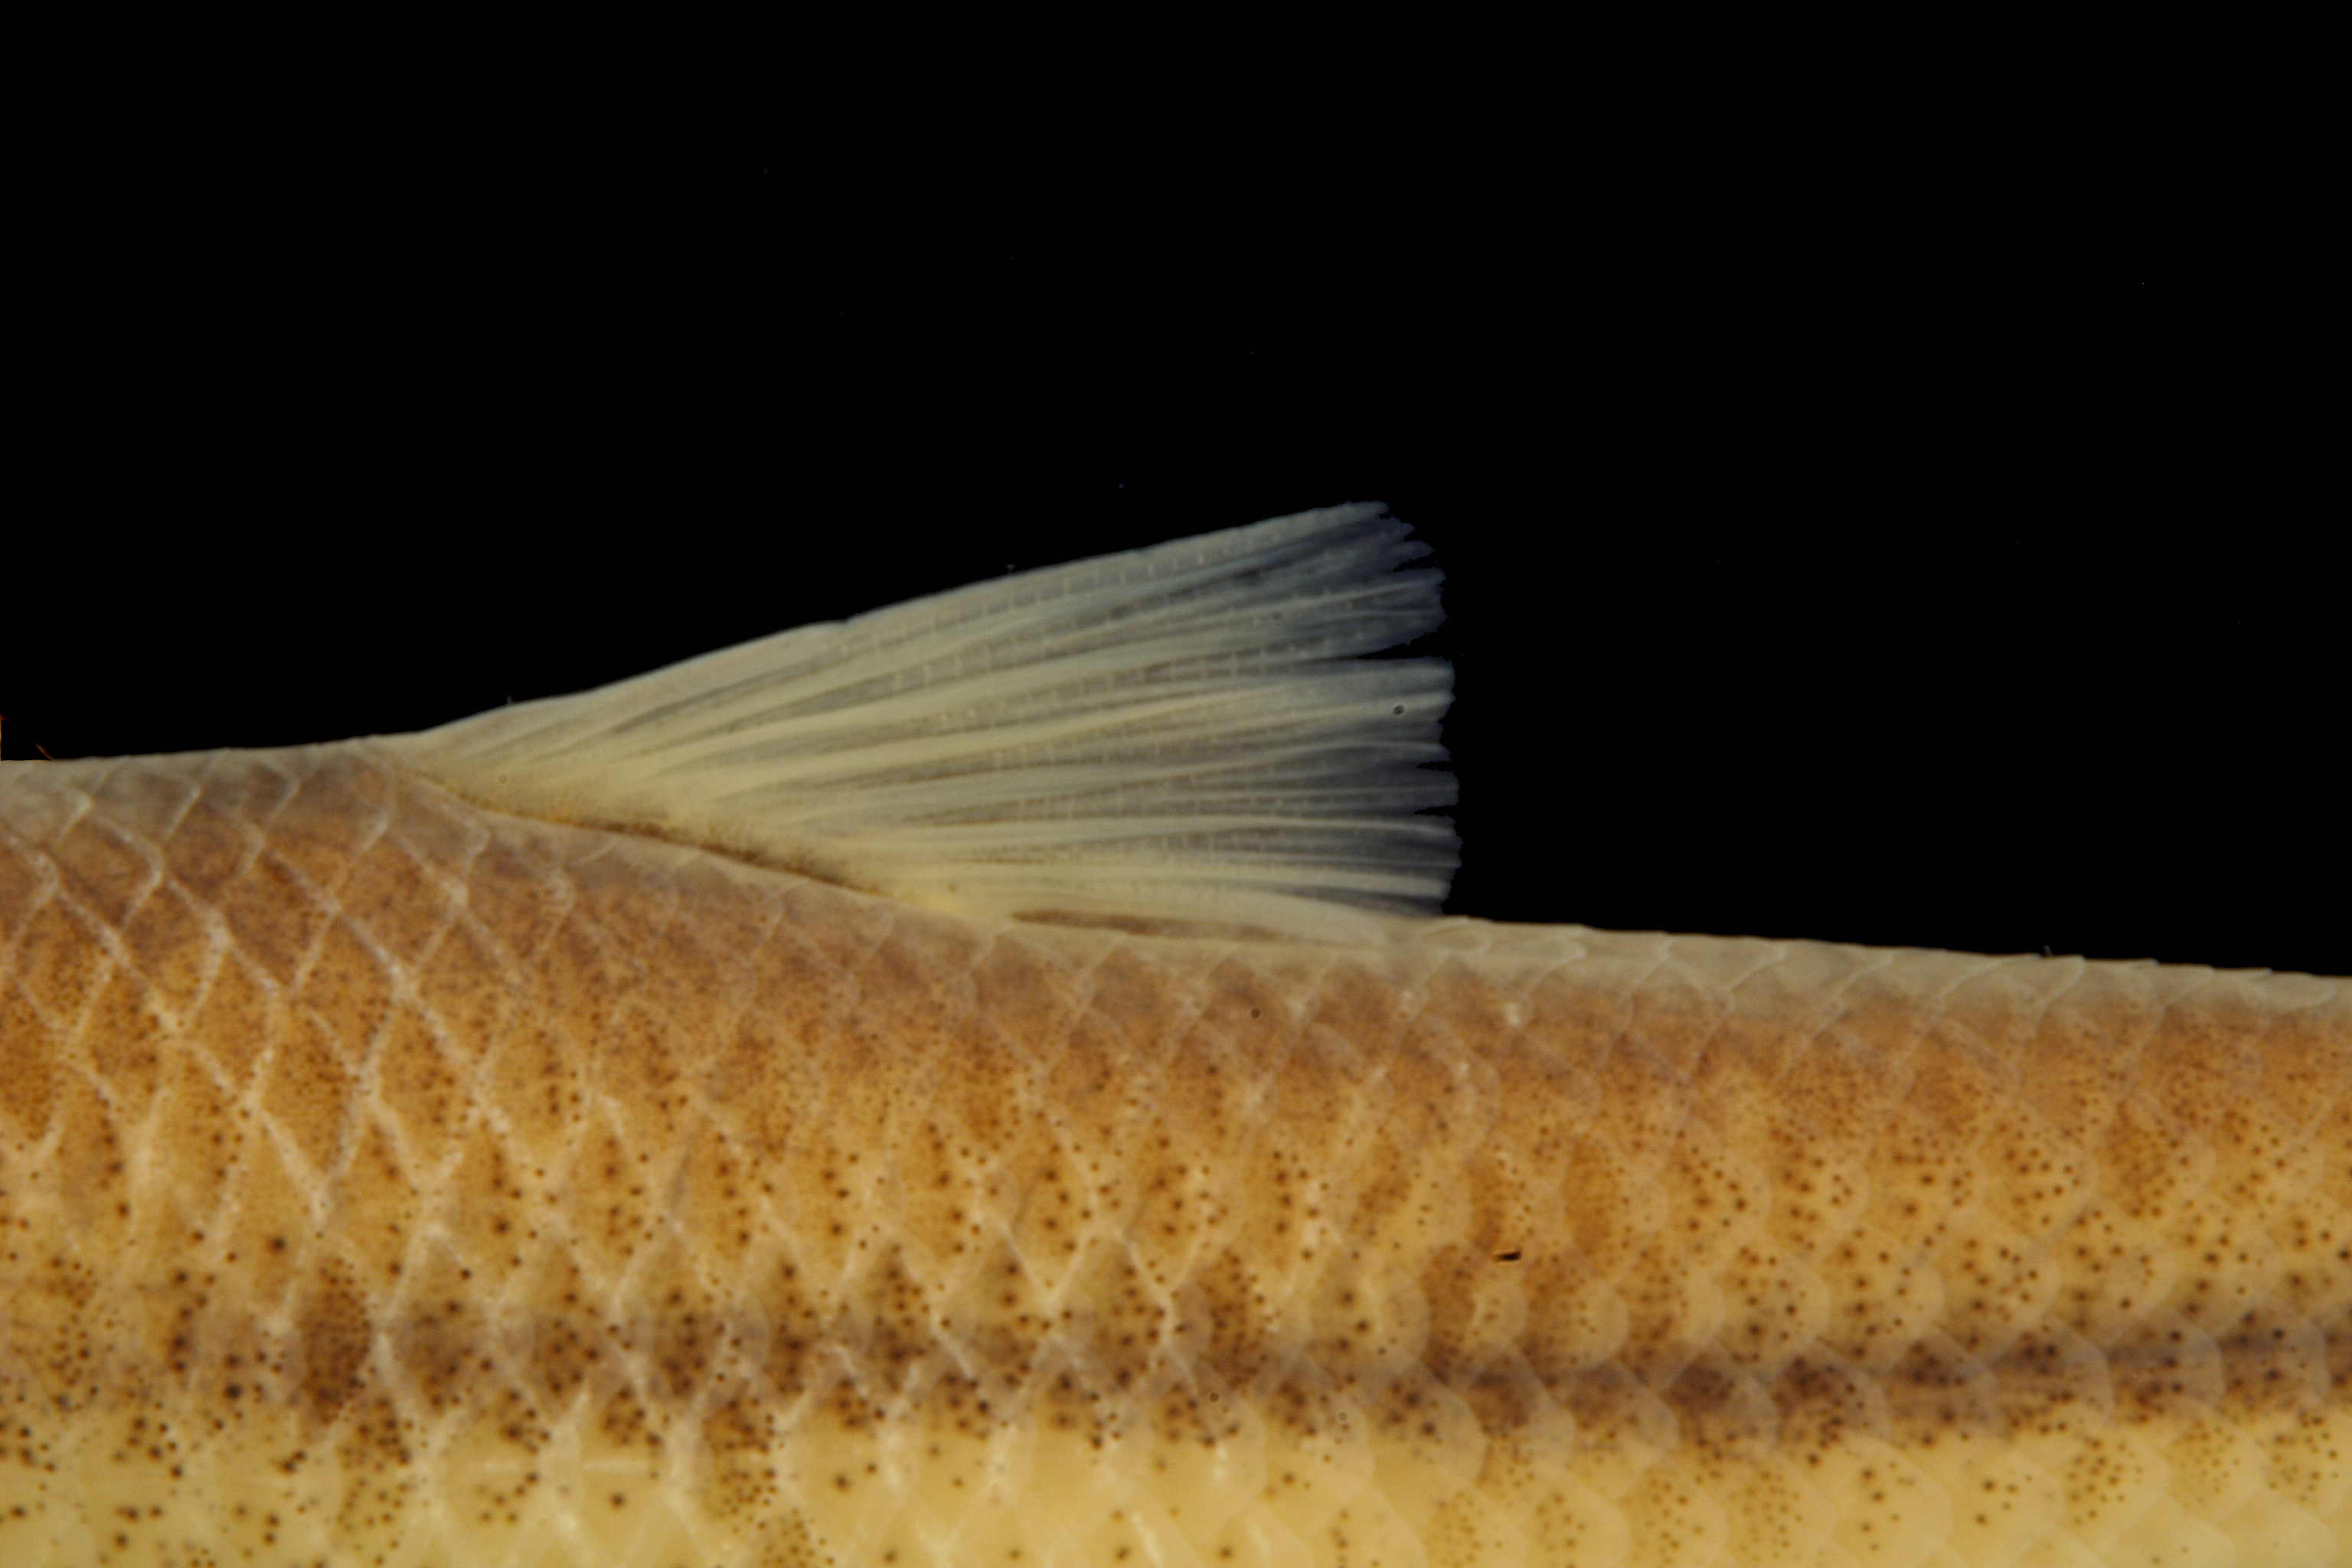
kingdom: Animalia
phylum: Chordata
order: Cypriniformes
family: Cyprinidae
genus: Dionda
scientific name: Dionda episcopa
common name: Roundnose minnow
